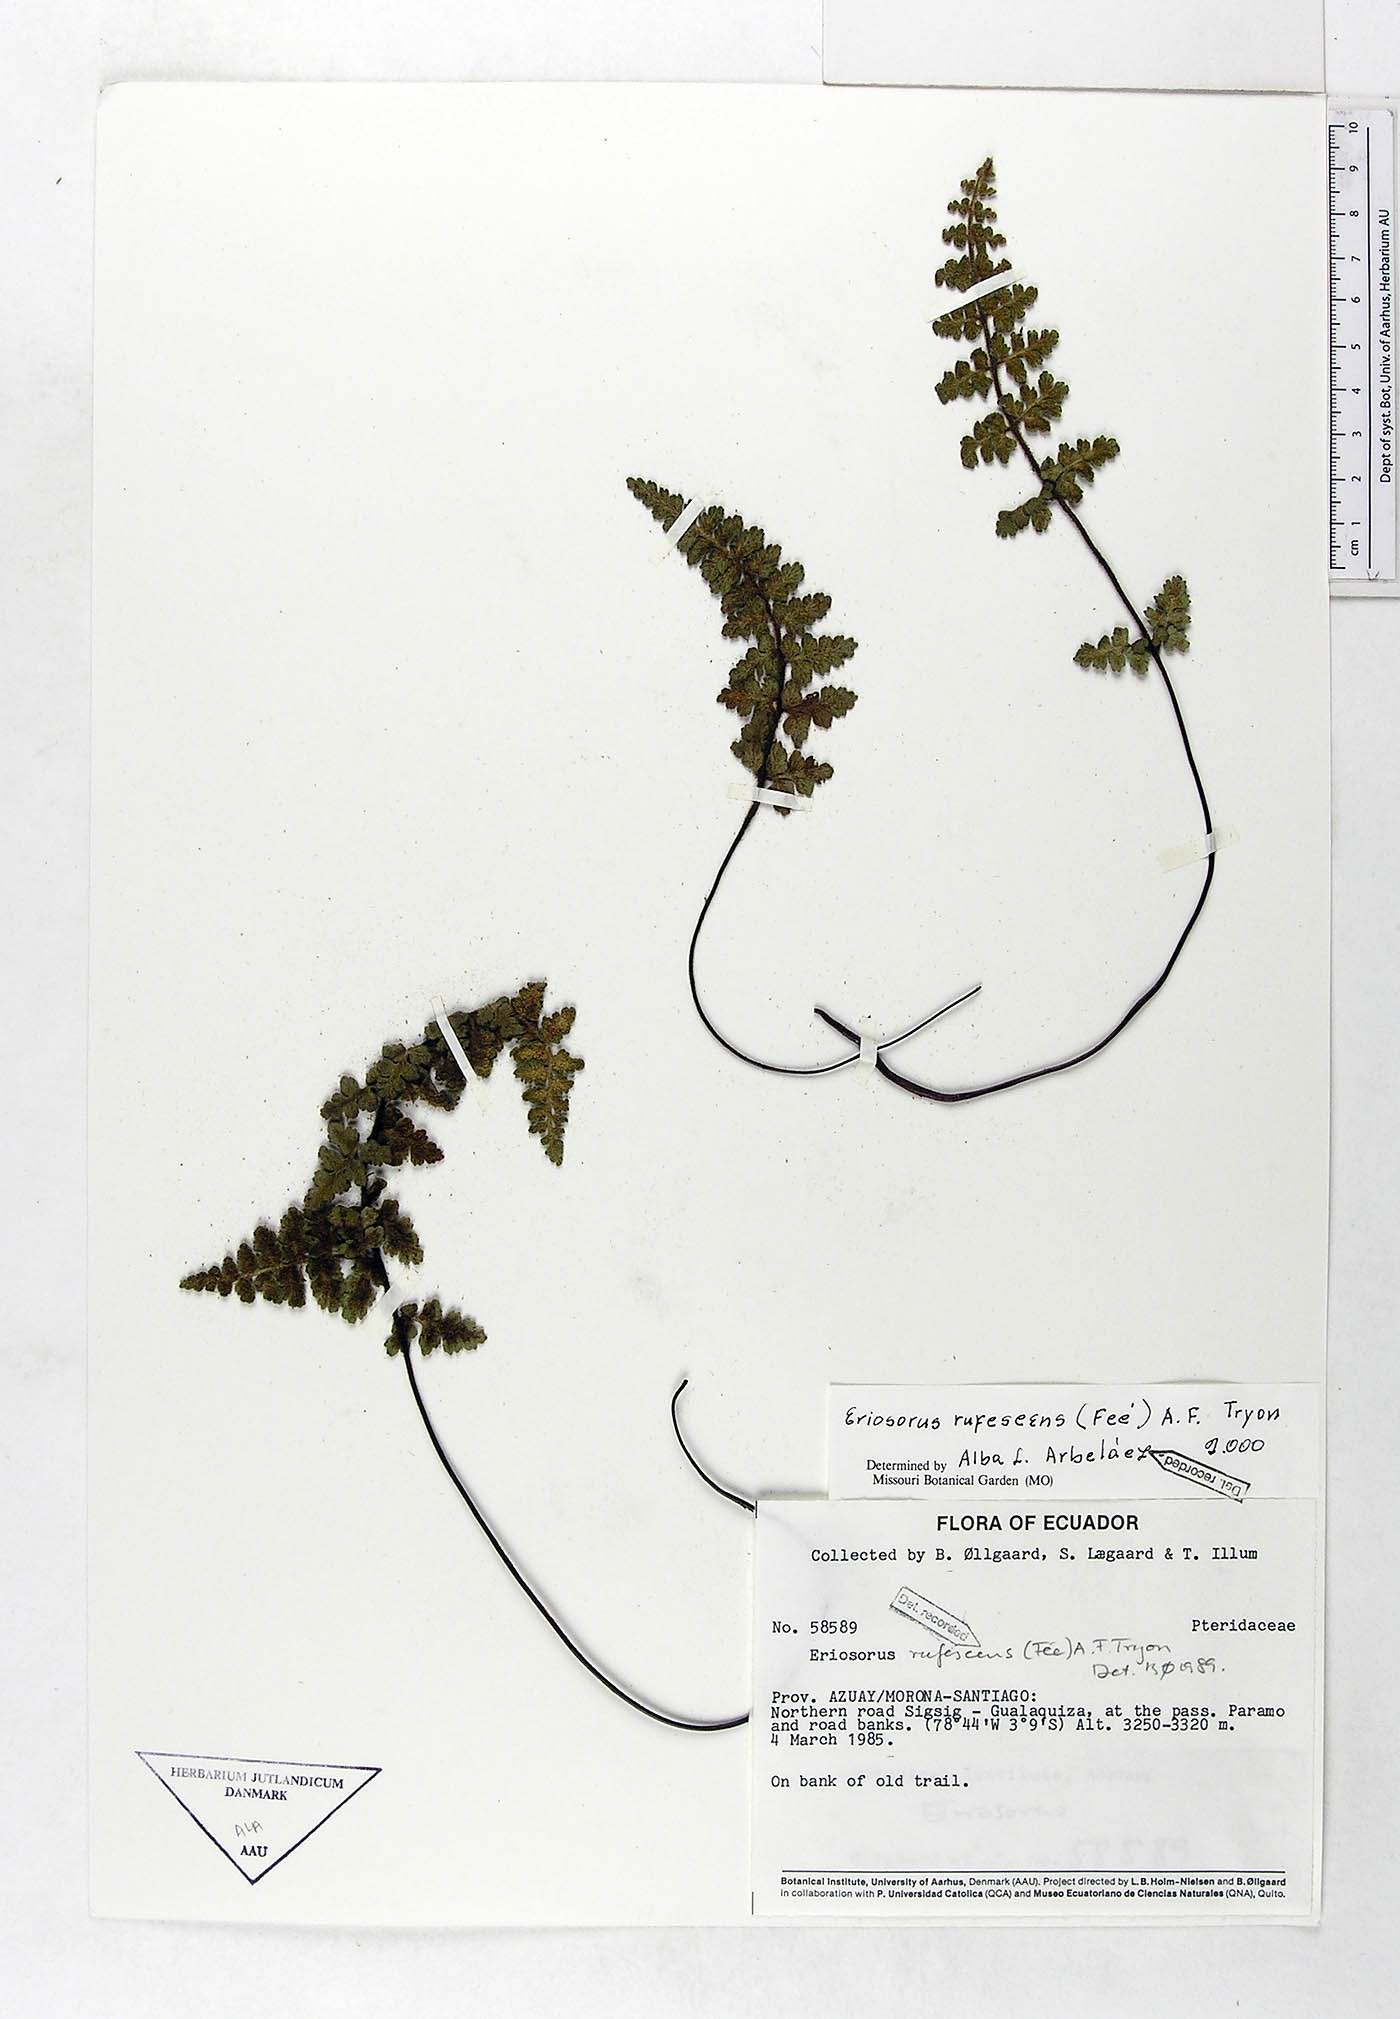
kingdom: Plantae
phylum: Tracheophyta
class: Polypodiopsida
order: Polypodiales
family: Pteridaceae
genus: Jamesonia
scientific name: Jamesonia rufescens
